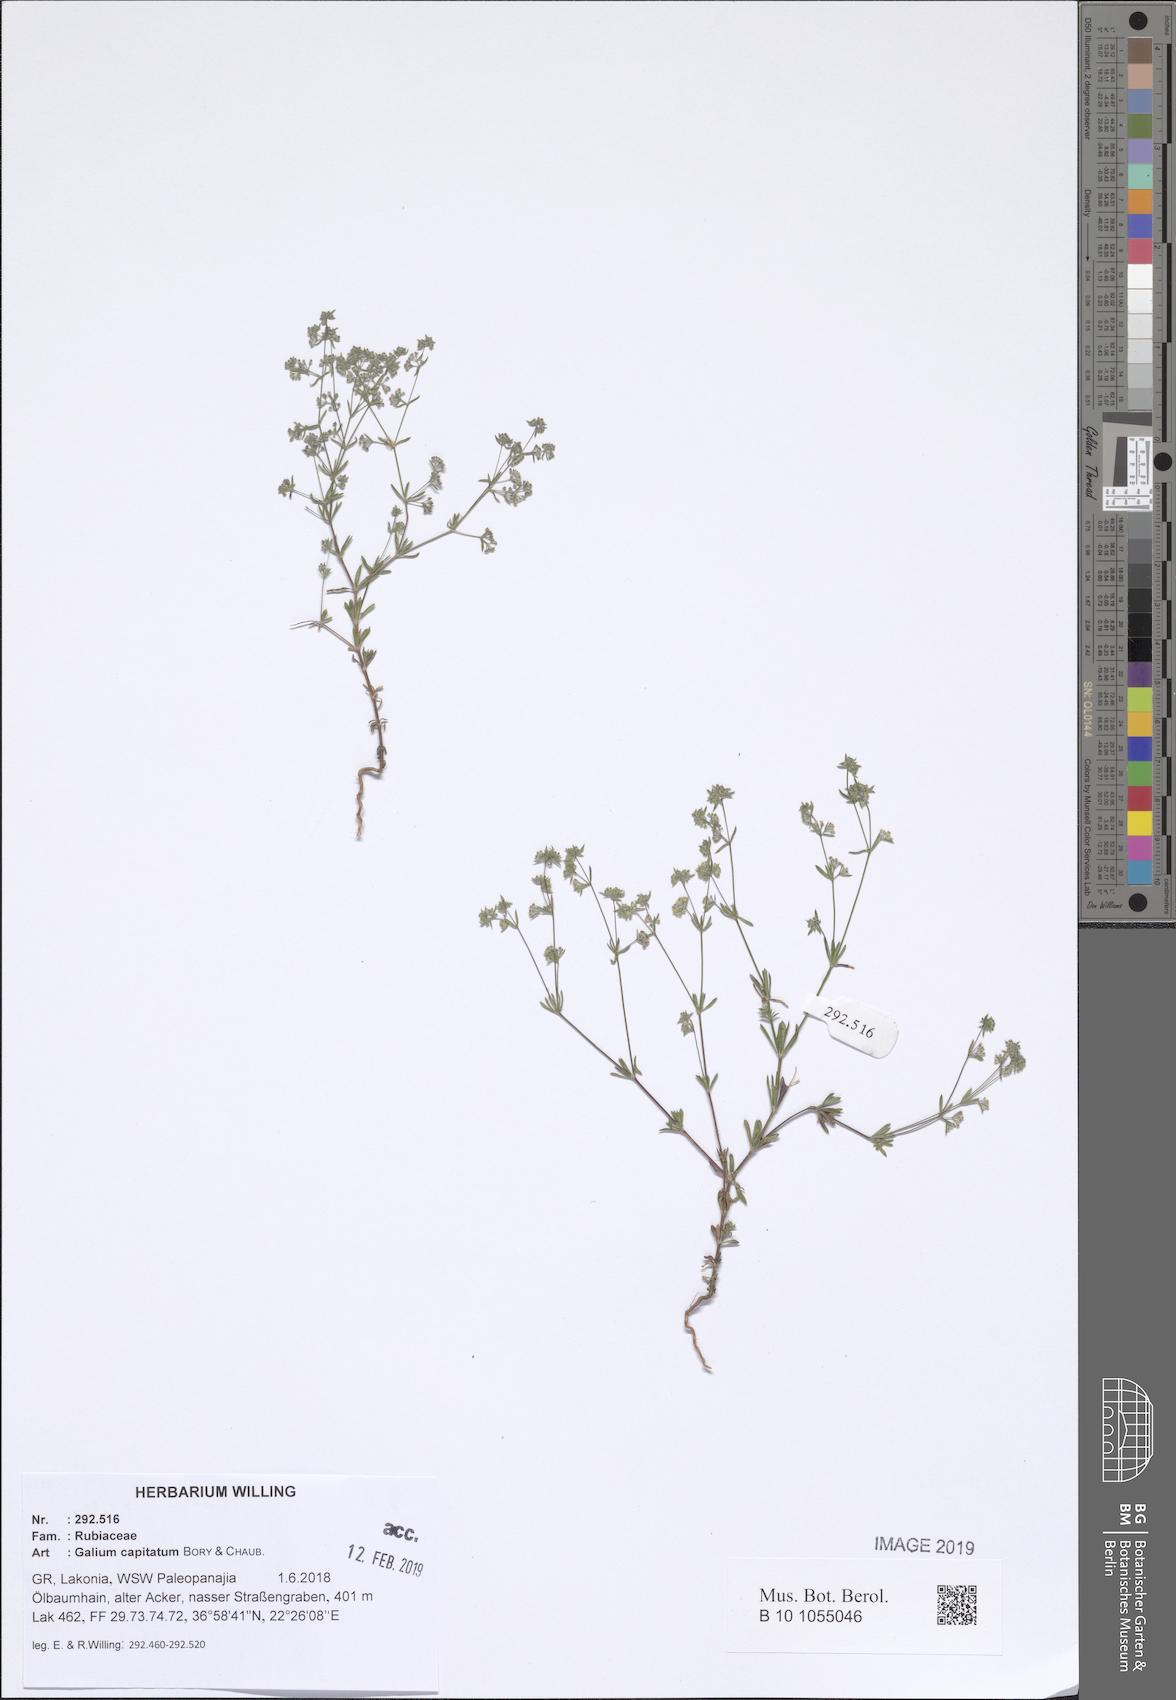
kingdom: Plantae
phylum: Tracheophyta
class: Magnoliopsida
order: Gentianales
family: Rubiaceae
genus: Galium
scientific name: Galium capitatum
